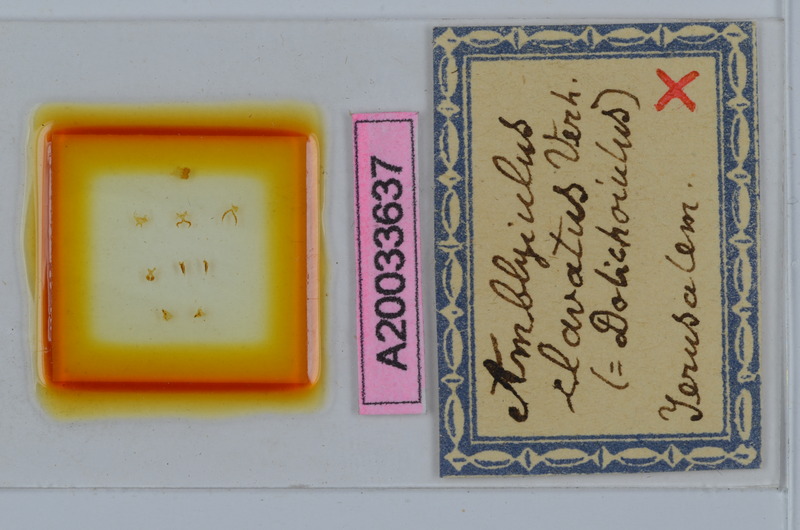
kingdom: Animalia
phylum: Arthropoda
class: Diplopoda
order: Julida
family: Julidae
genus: Dolichoiulus
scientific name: Dolichoiulus clavatus
